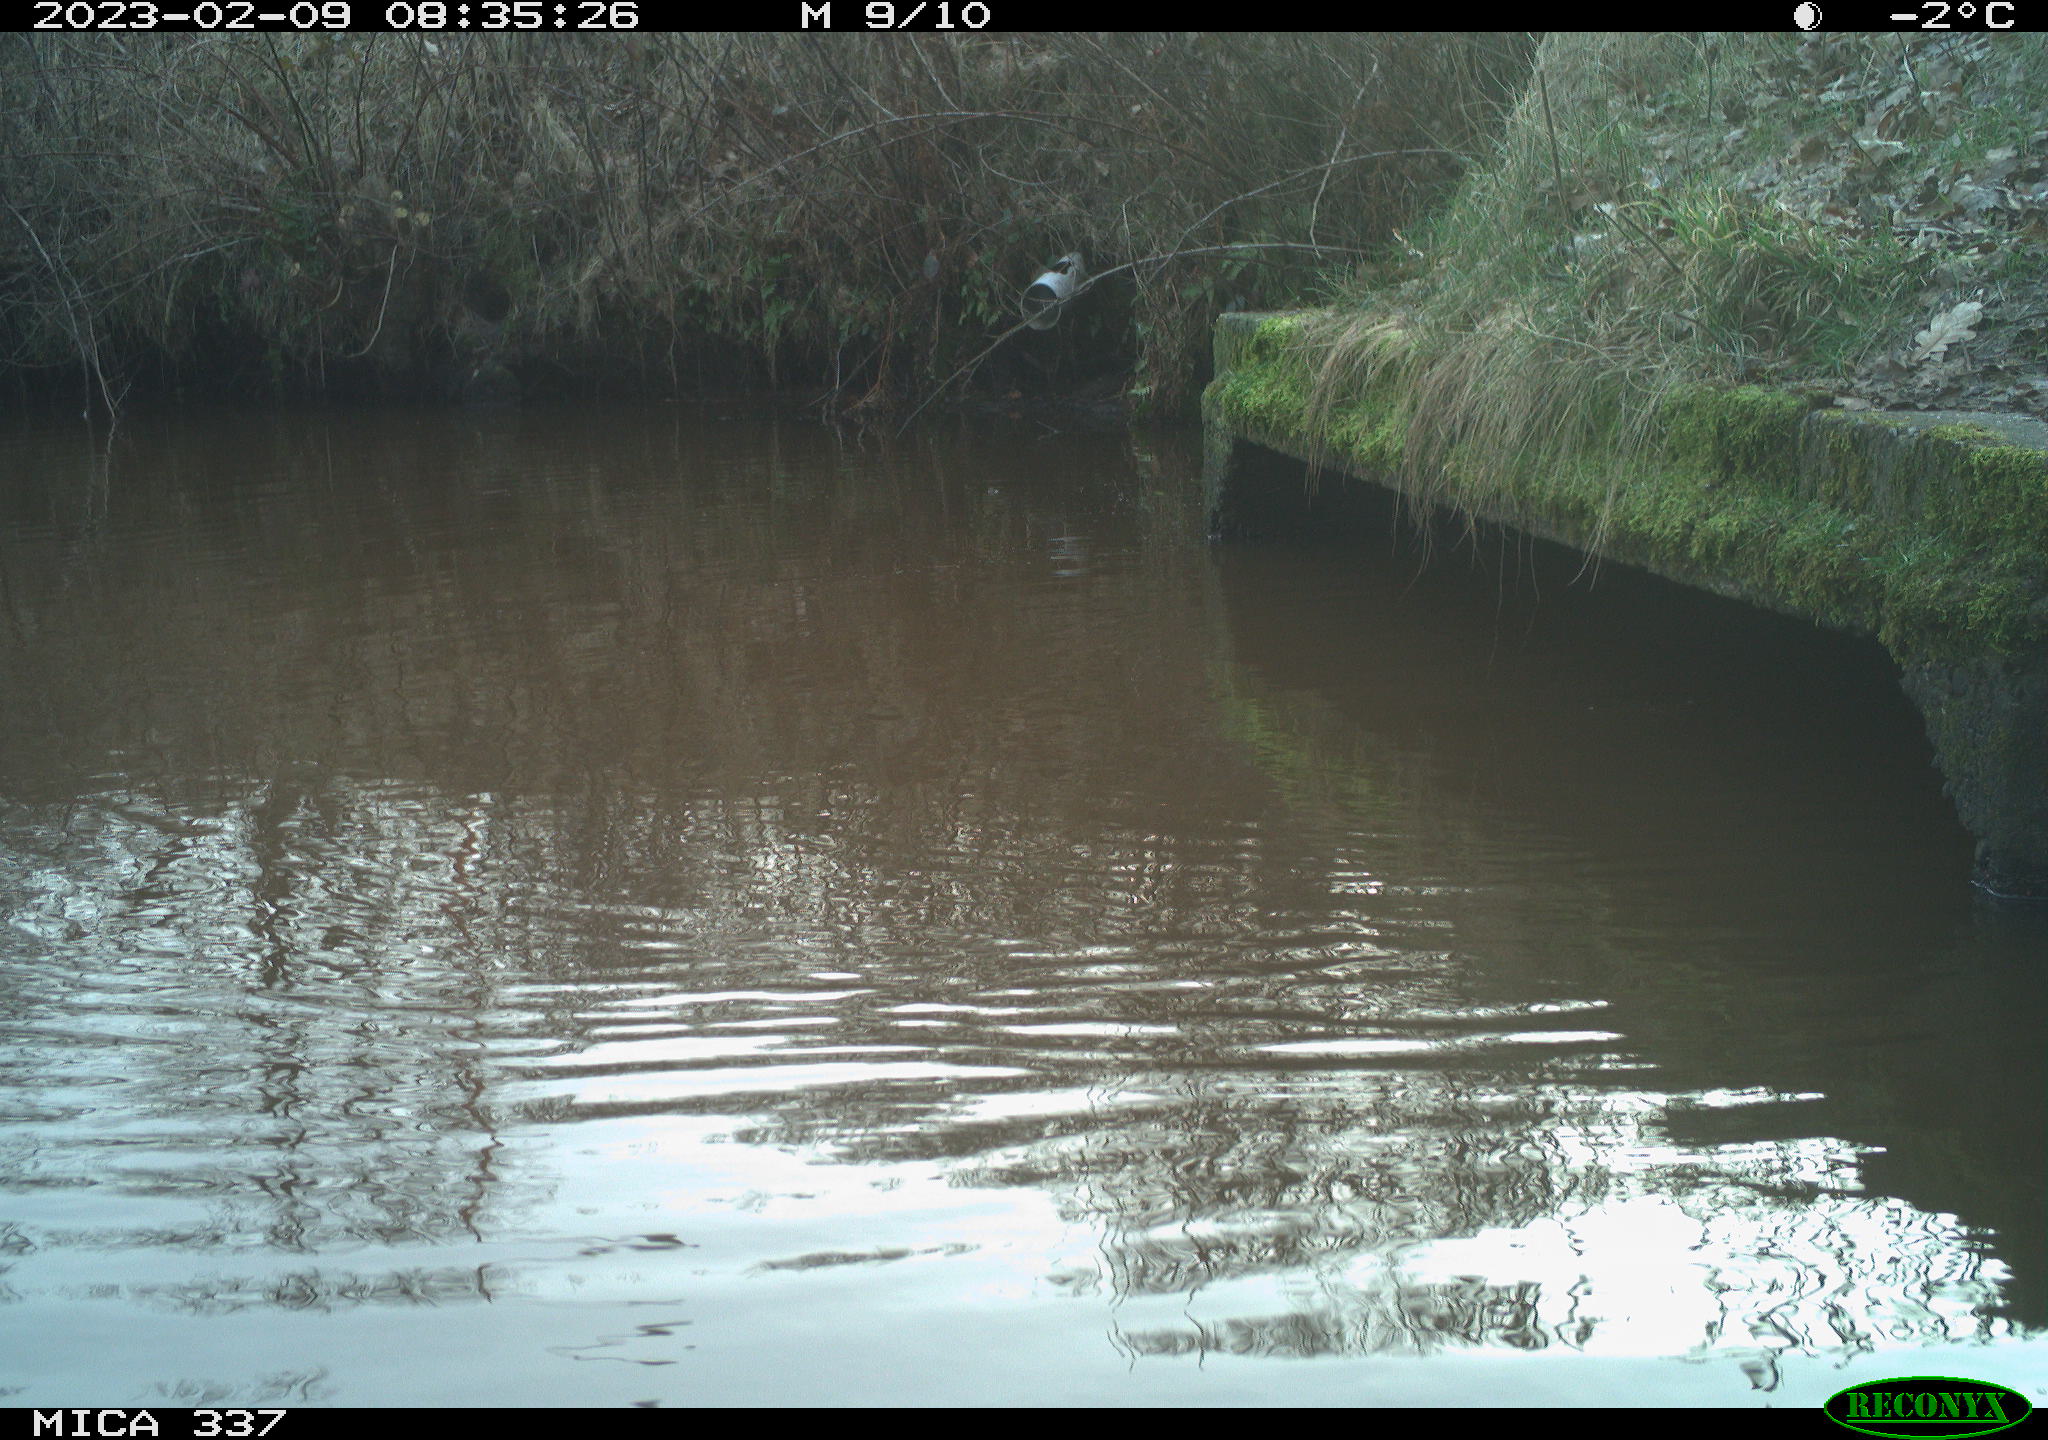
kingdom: Animalia
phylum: Chordata
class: Aves
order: Anseriformes
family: Anatidae
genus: Anas
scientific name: Anas
